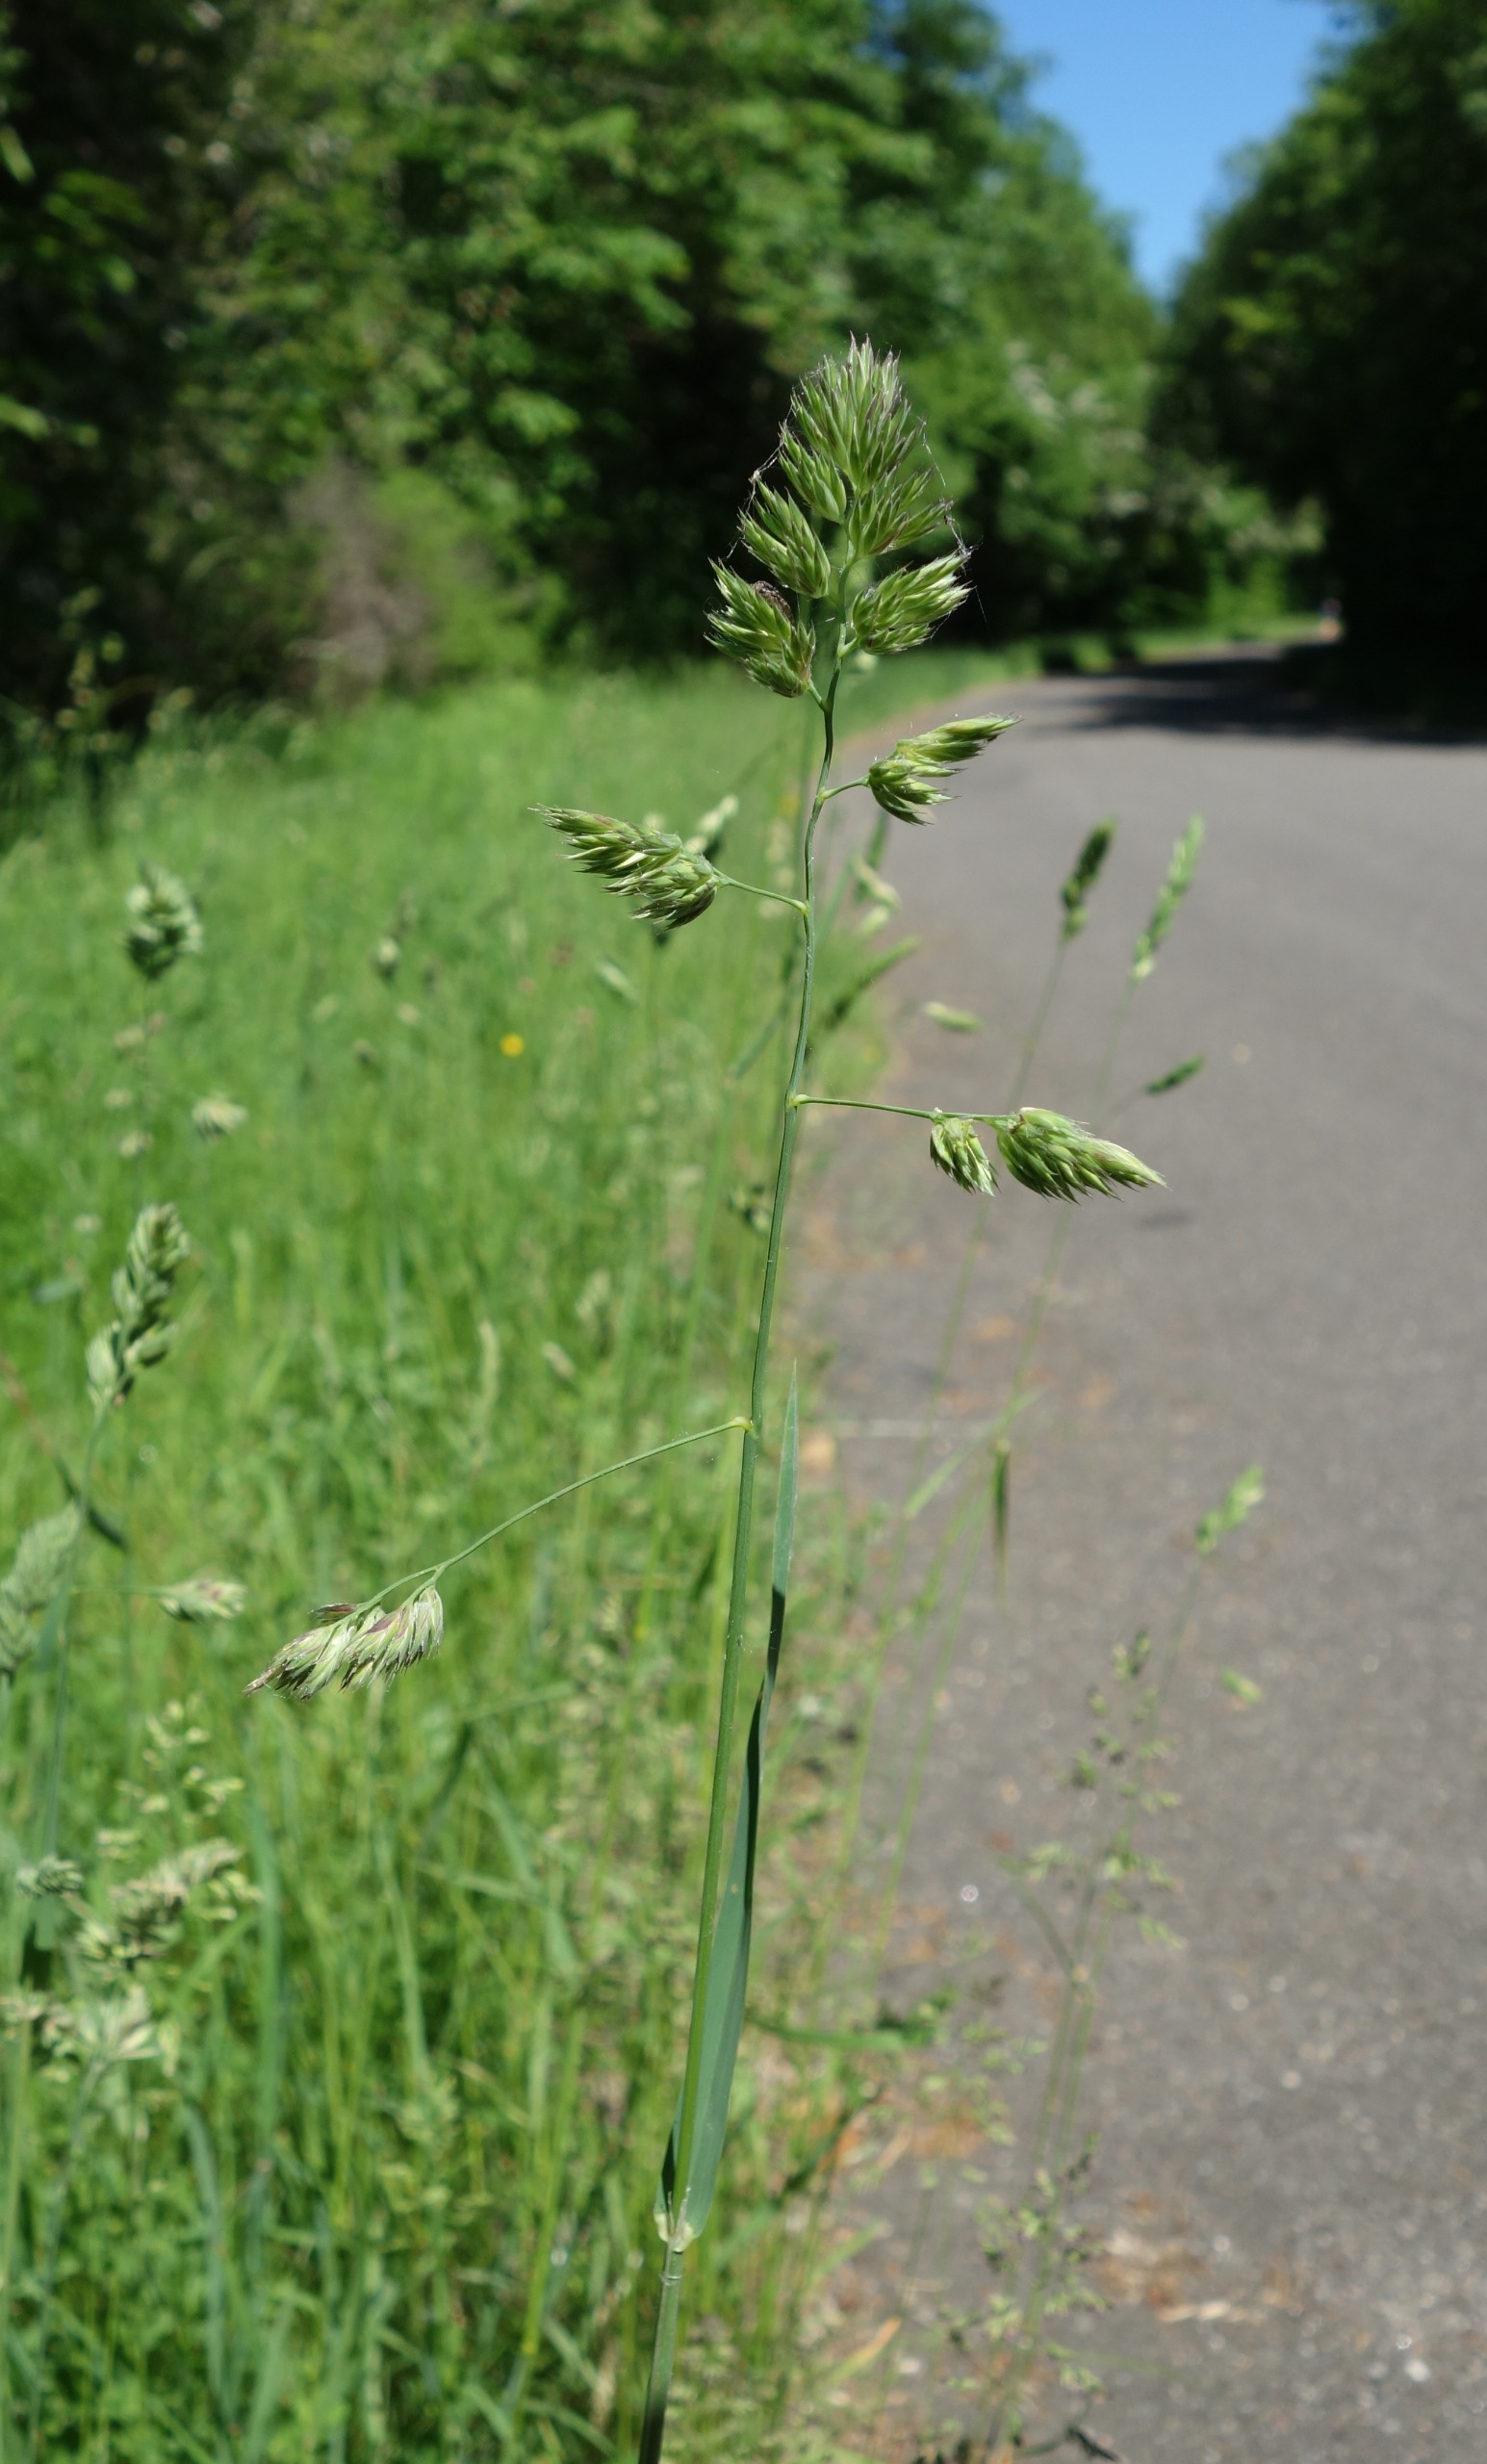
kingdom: Plantae
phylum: Tracheophyta
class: Liliopsida
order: Poales
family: Poaceae
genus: Dactylis
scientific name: Dactylis glomerata
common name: Almindelig hundegræs
